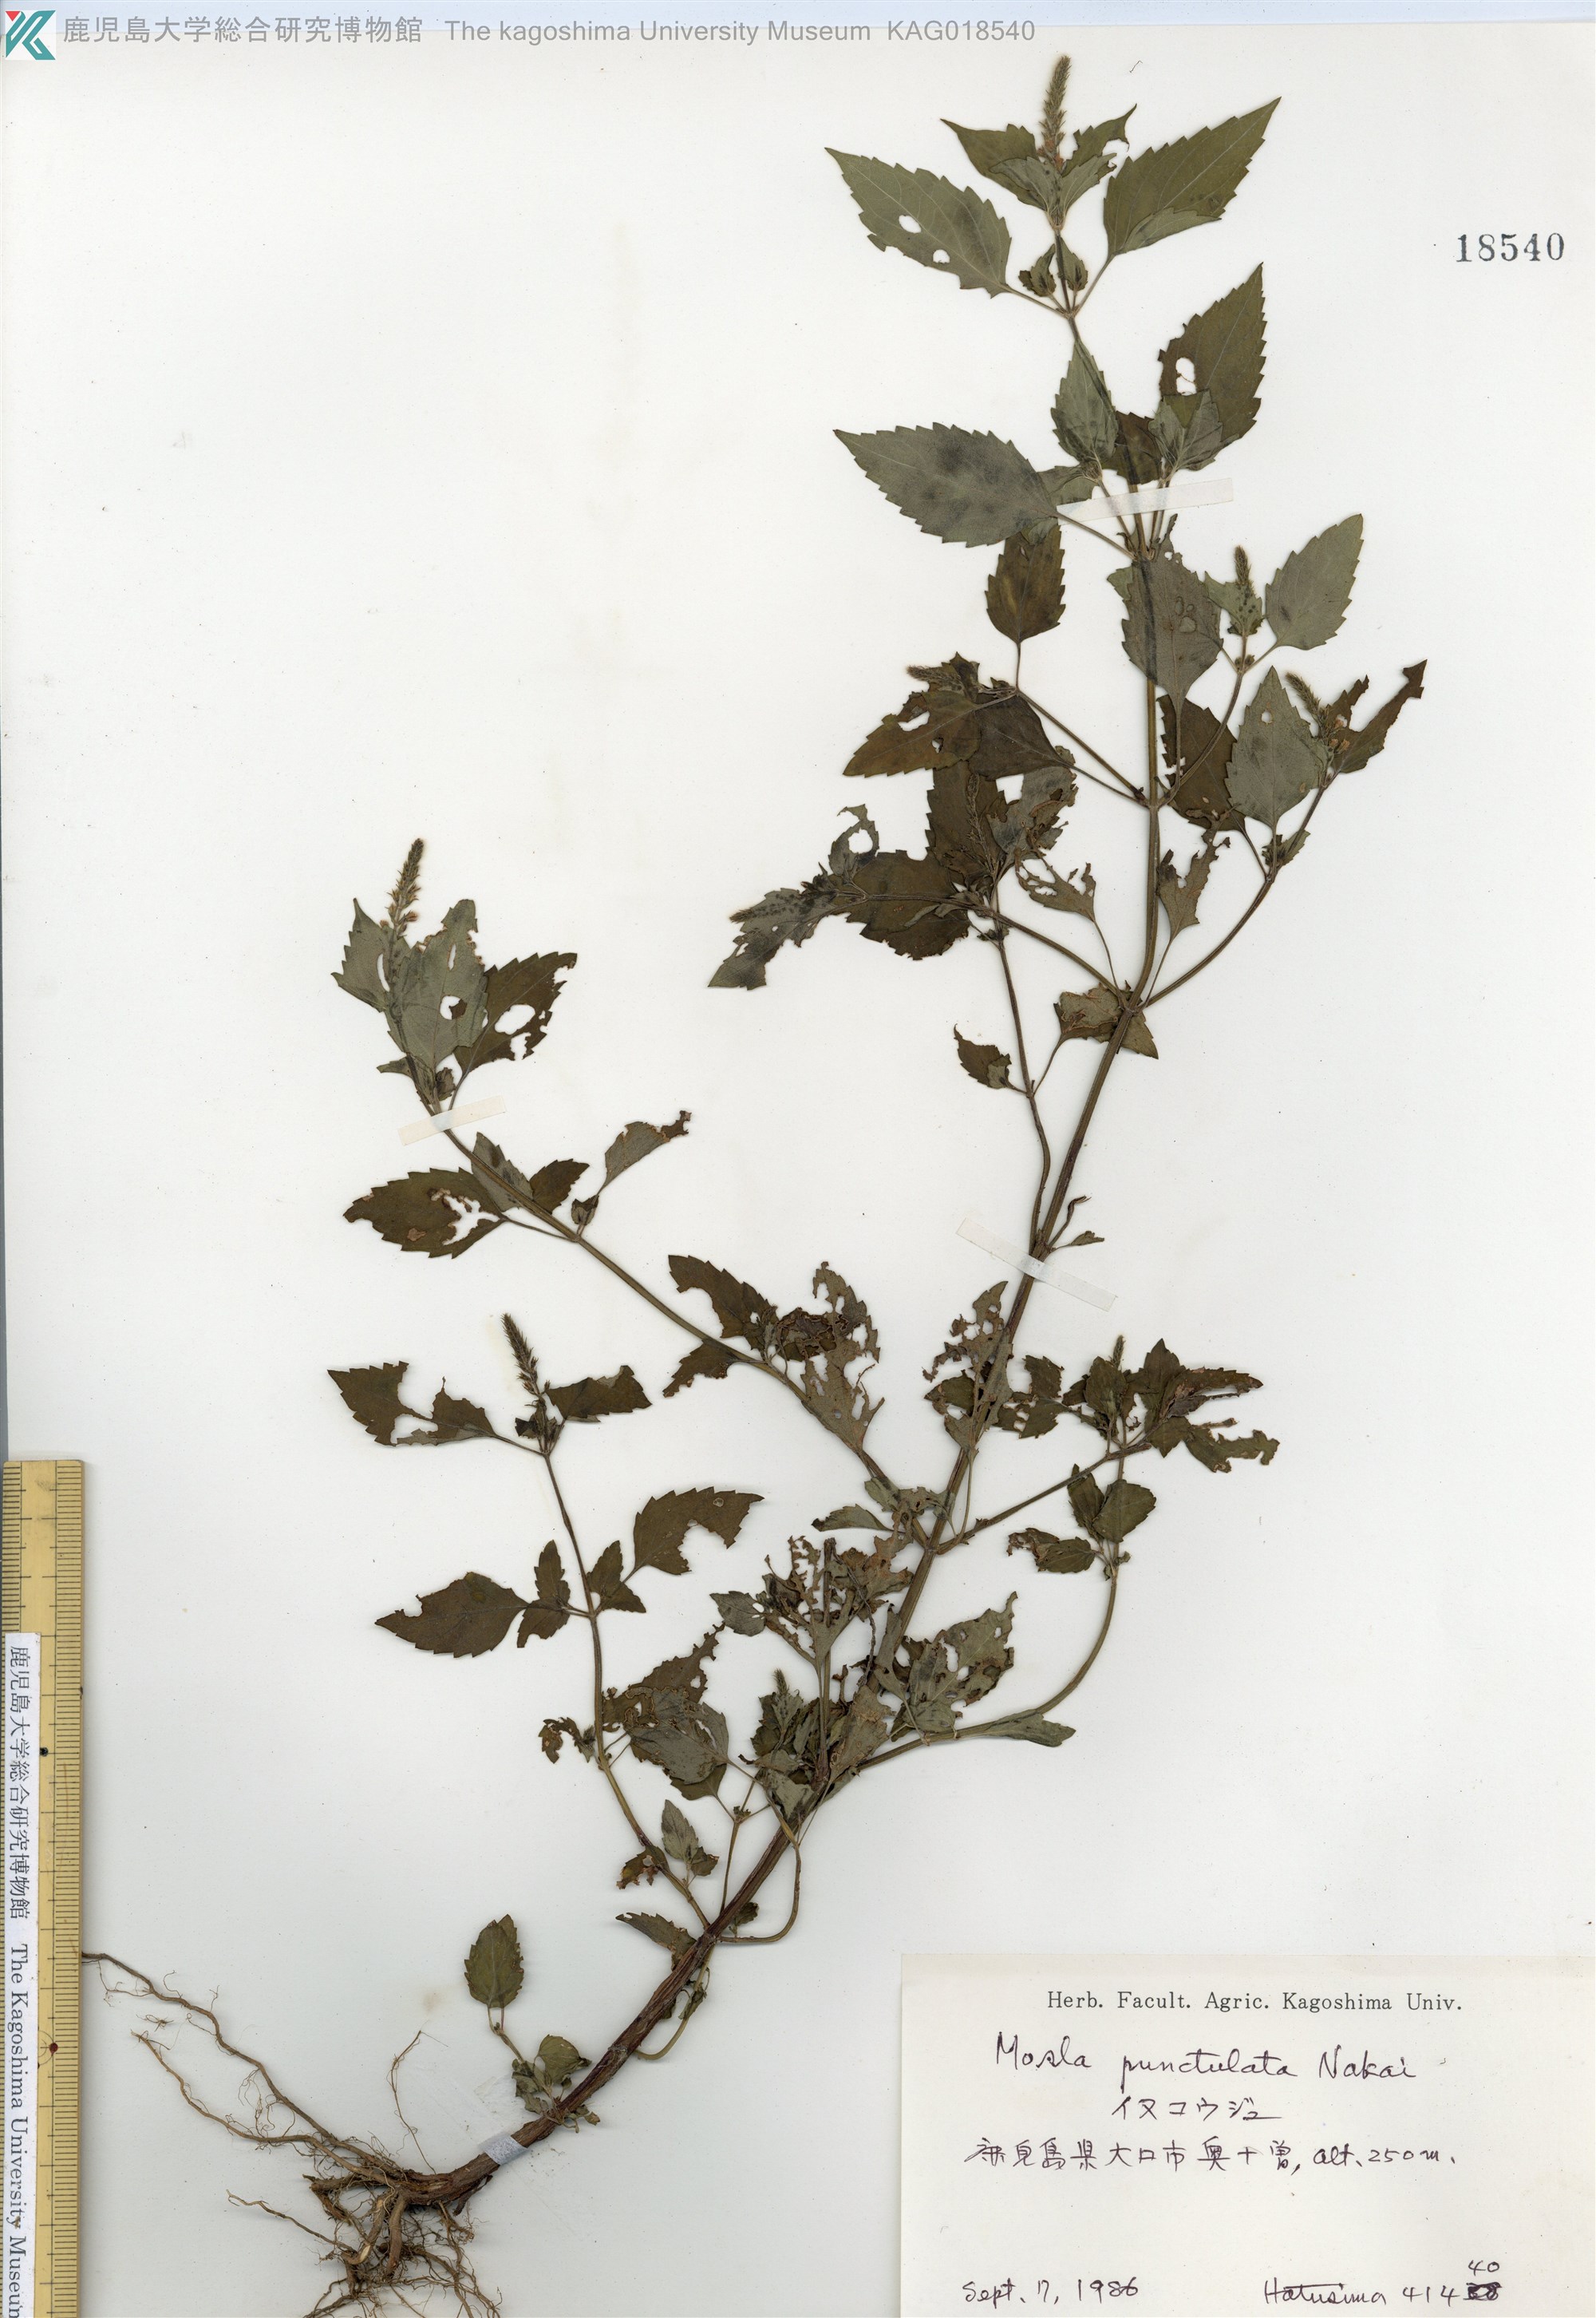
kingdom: Plantae
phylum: Tracheophyta
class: Magnoliopsida
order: Lamiales
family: Lamiaceae
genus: Mosla
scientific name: Mosla scabra
